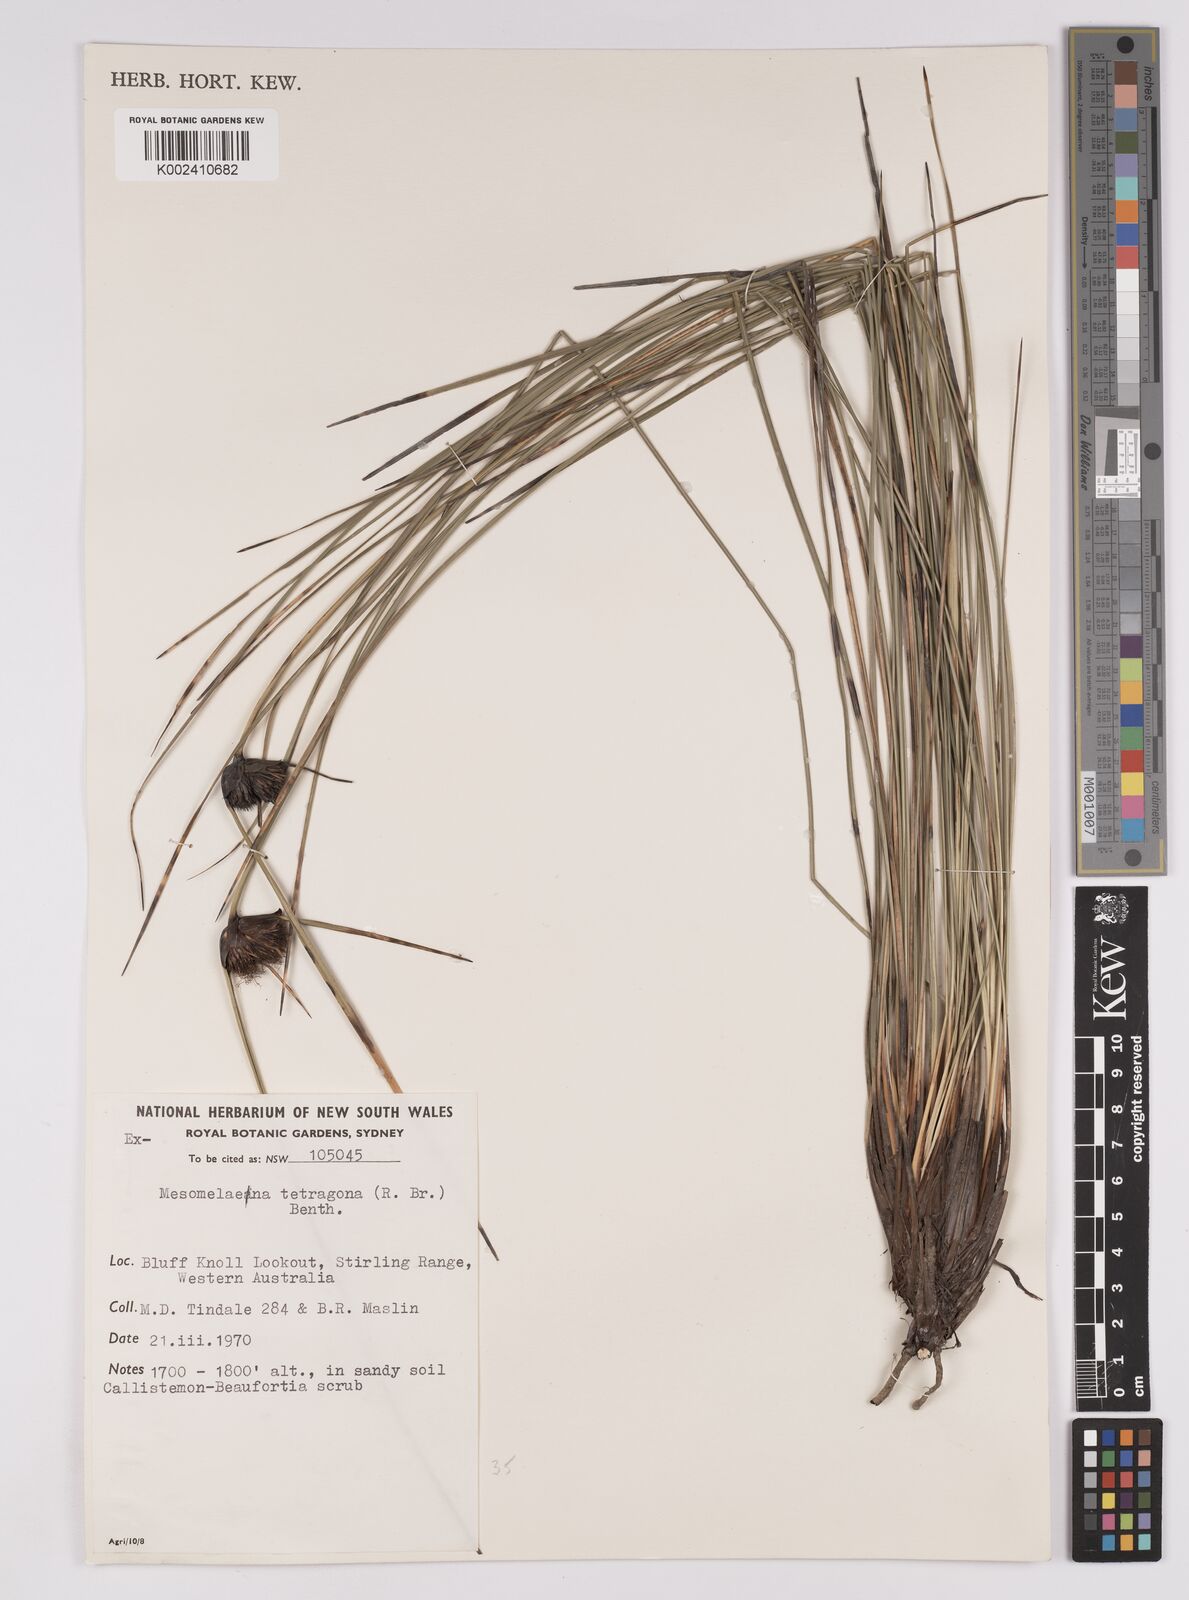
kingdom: Plantae
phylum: Tracheophyta
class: Liliopsida
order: Poales
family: Cyperaceae
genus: Mesomelaena
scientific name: Mesomelaena tetragona
